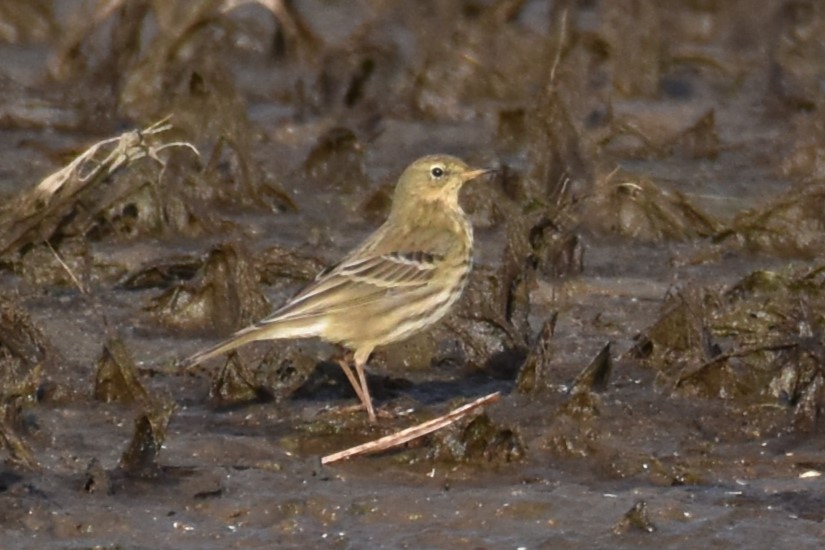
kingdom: Animalia
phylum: Chordata
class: Aves
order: Passeriformes
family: Motacillidae
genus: Anthus
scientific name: Anthus petrosus
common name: Skærpiber
